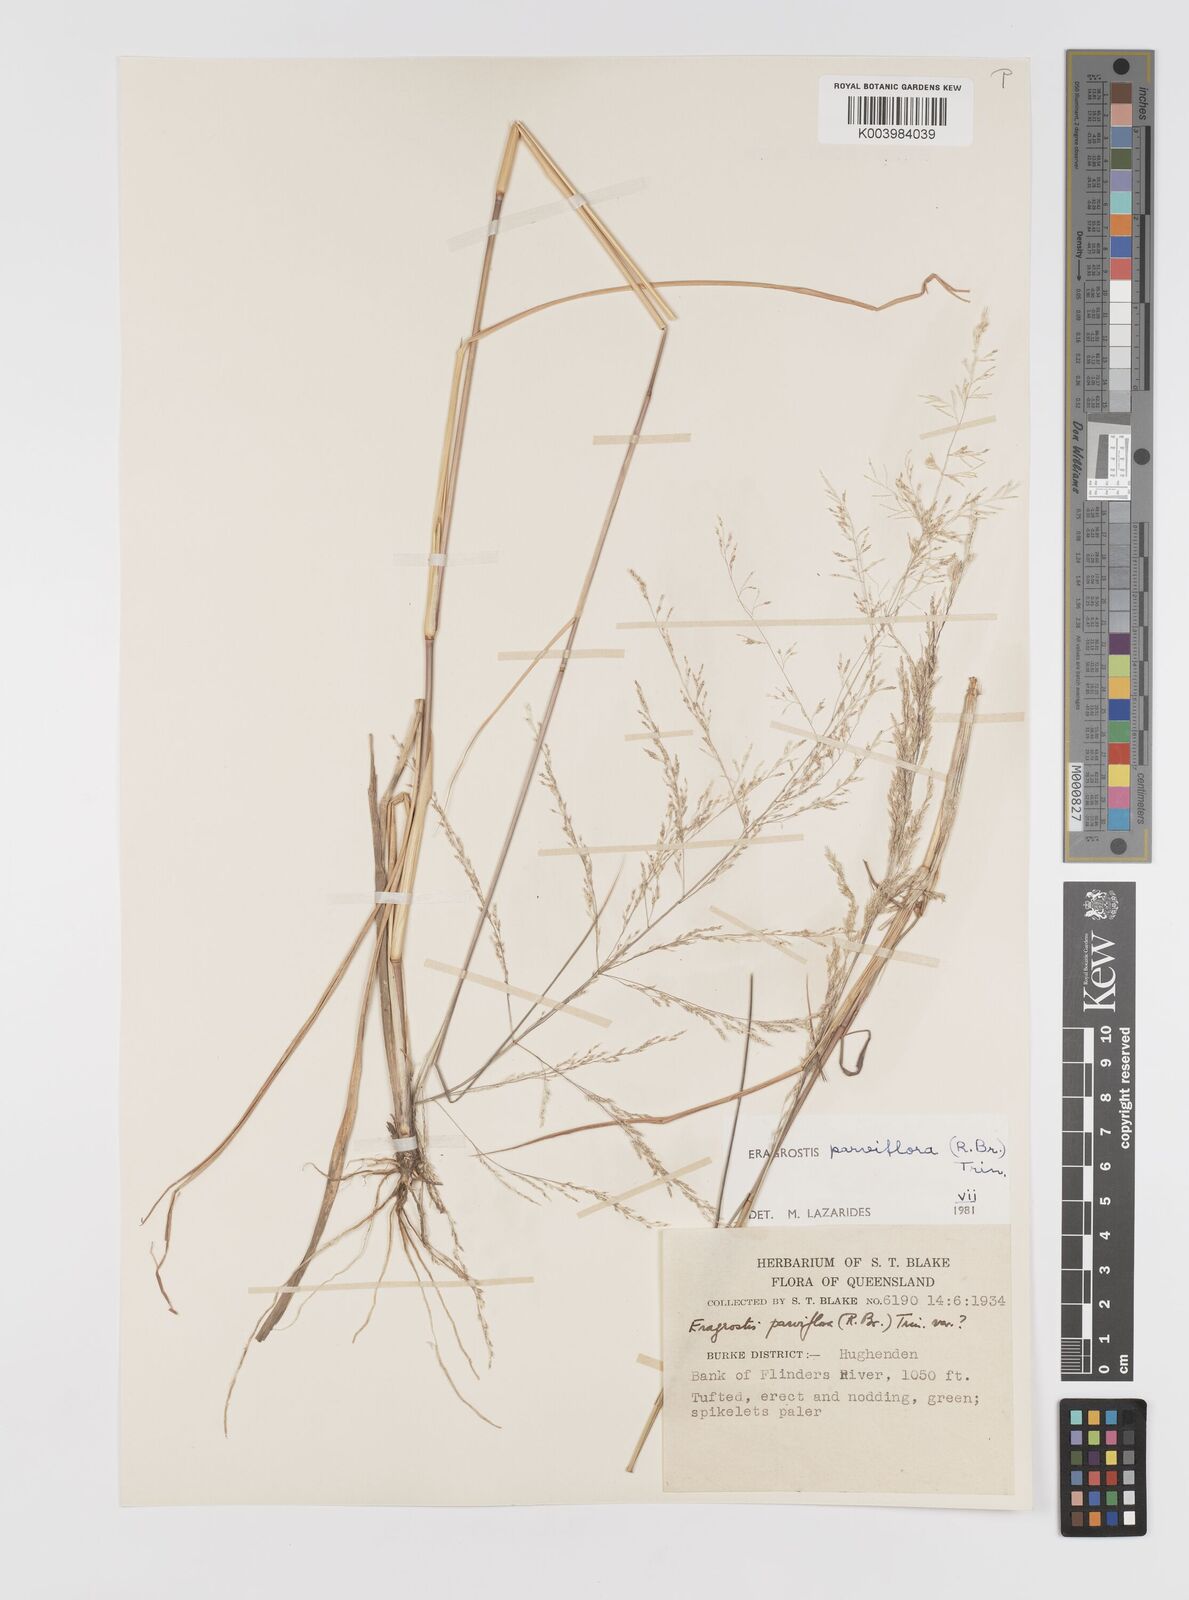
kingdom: Plantae
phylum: Tracheophyta
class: Liliopsida
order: Poales
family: Poaceae
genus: Eragrostis
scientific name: Eragrostis parviflora
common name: Weeping love-grass
